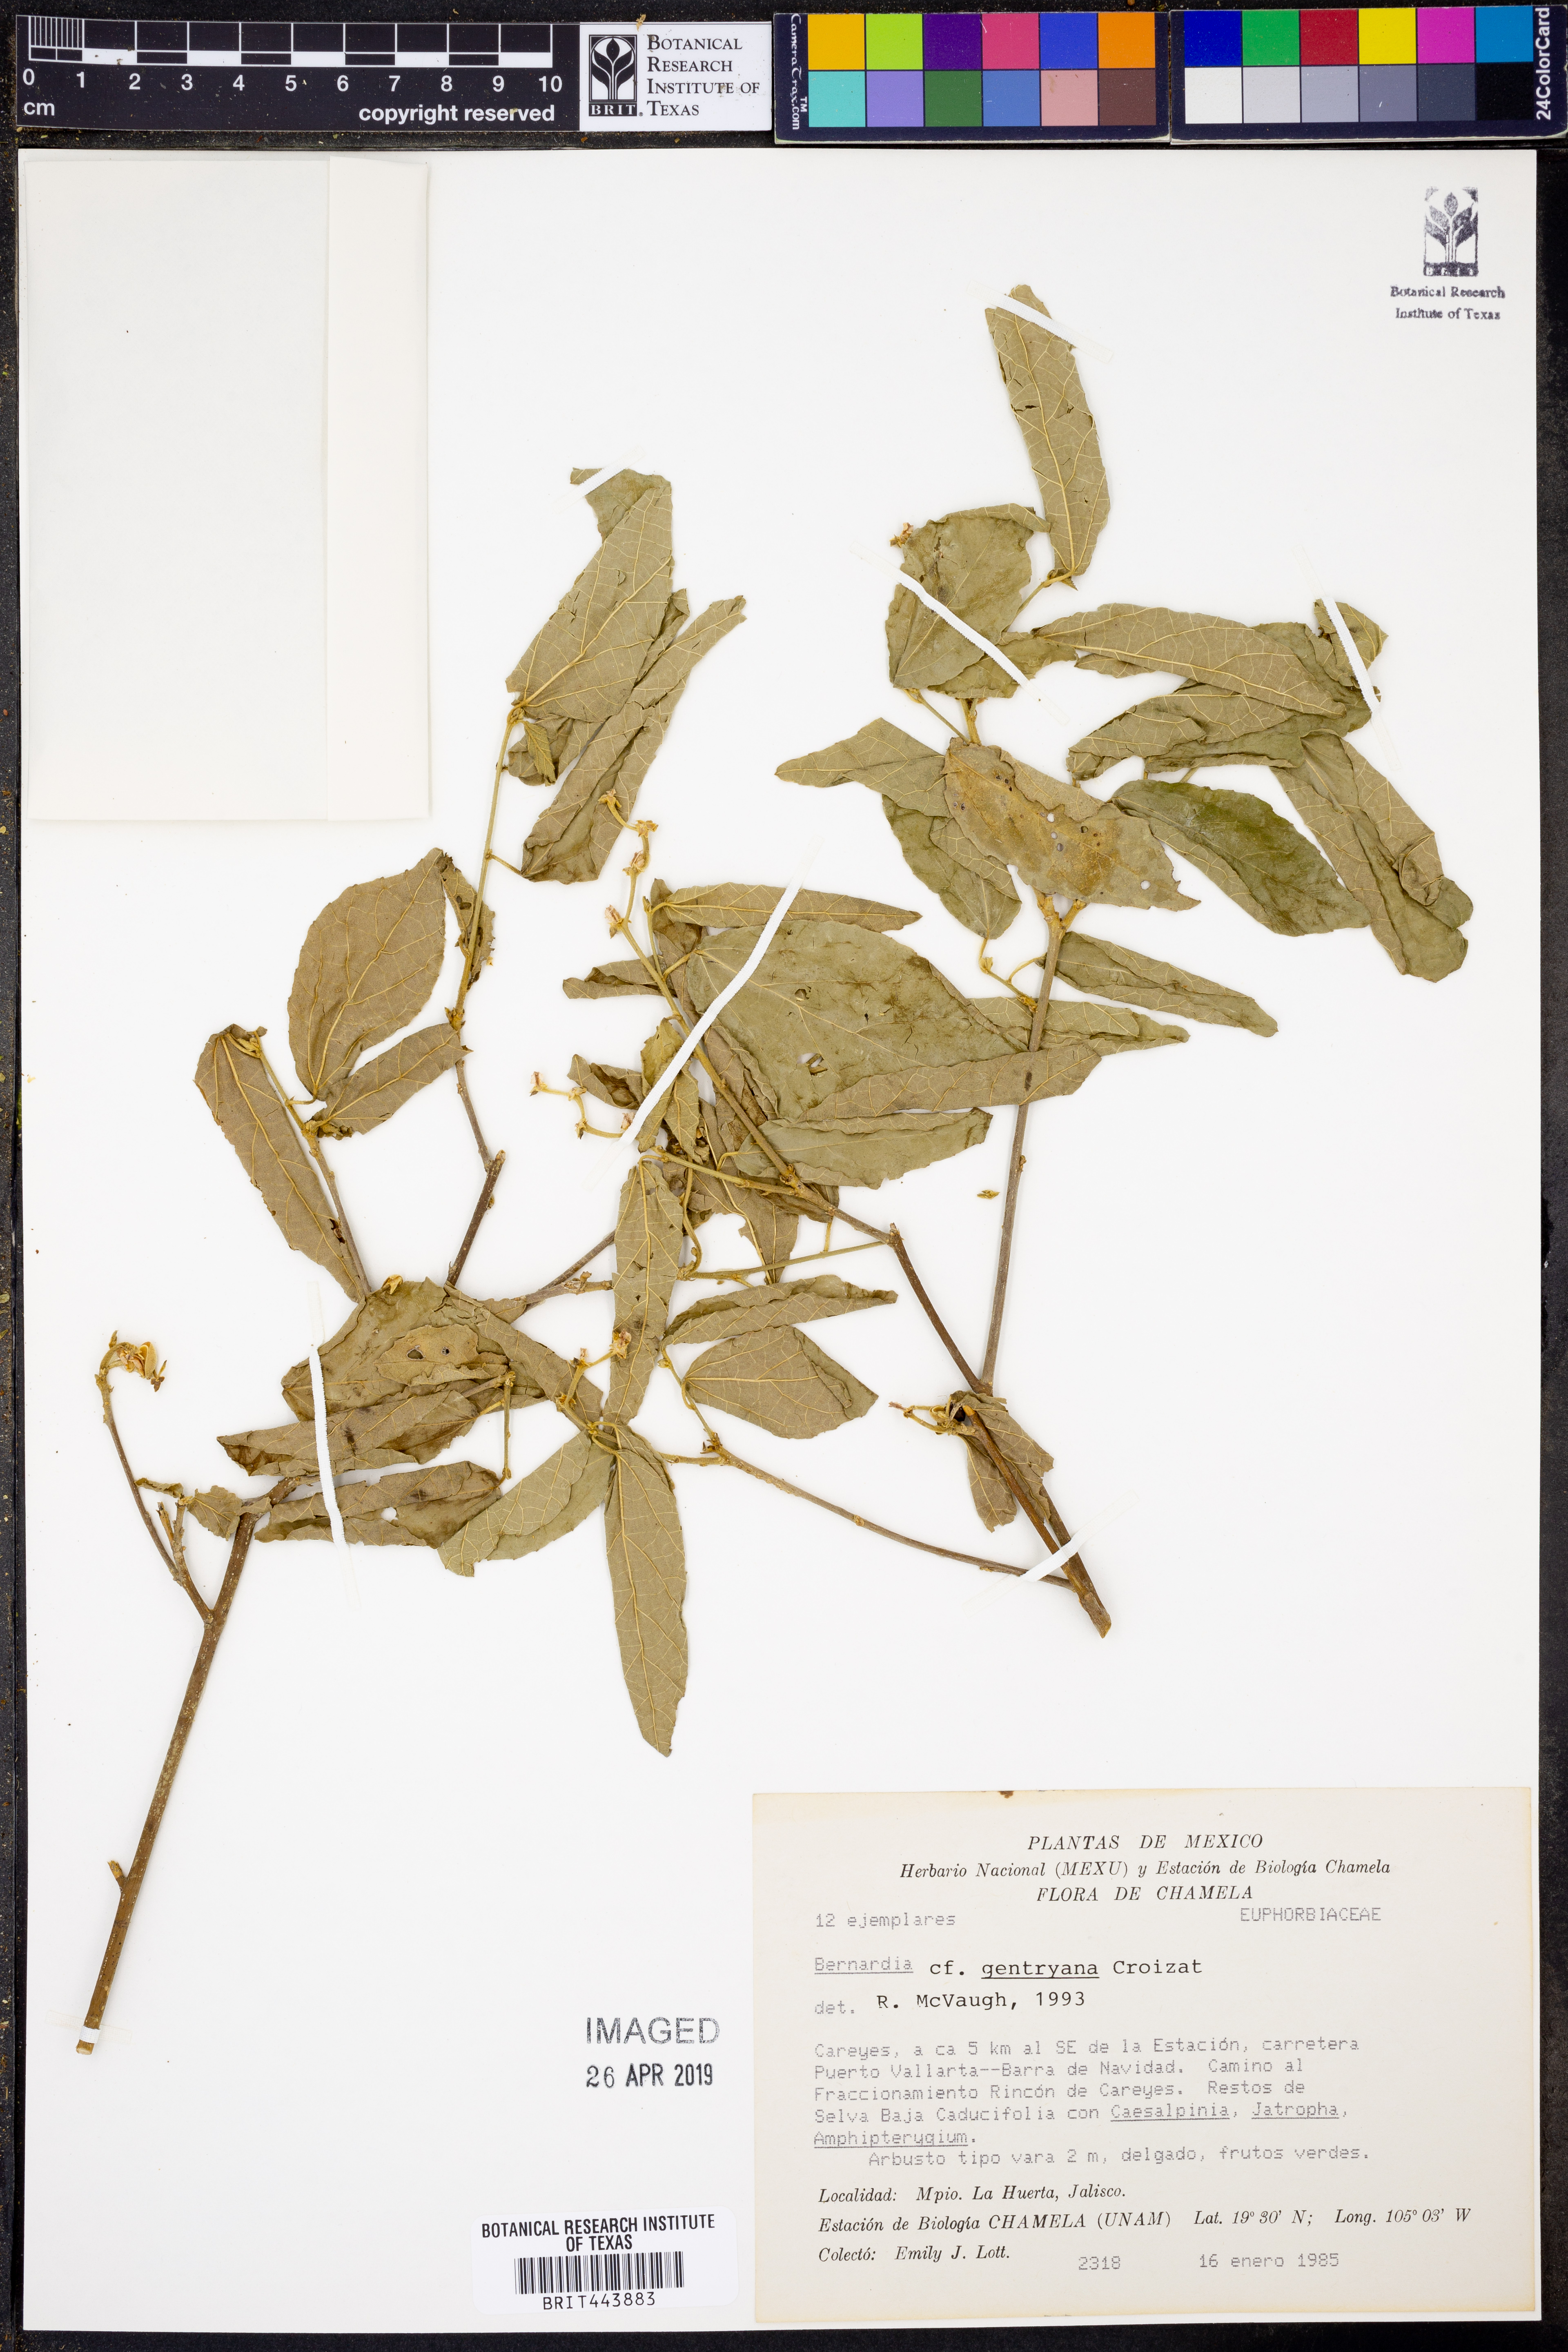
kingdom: Plantae
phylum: Tracheophyta
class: Magnoliopsida
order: Malpighiales
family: Euphorbiaceae
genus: Bernardia
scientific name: Bernardia gentryana
